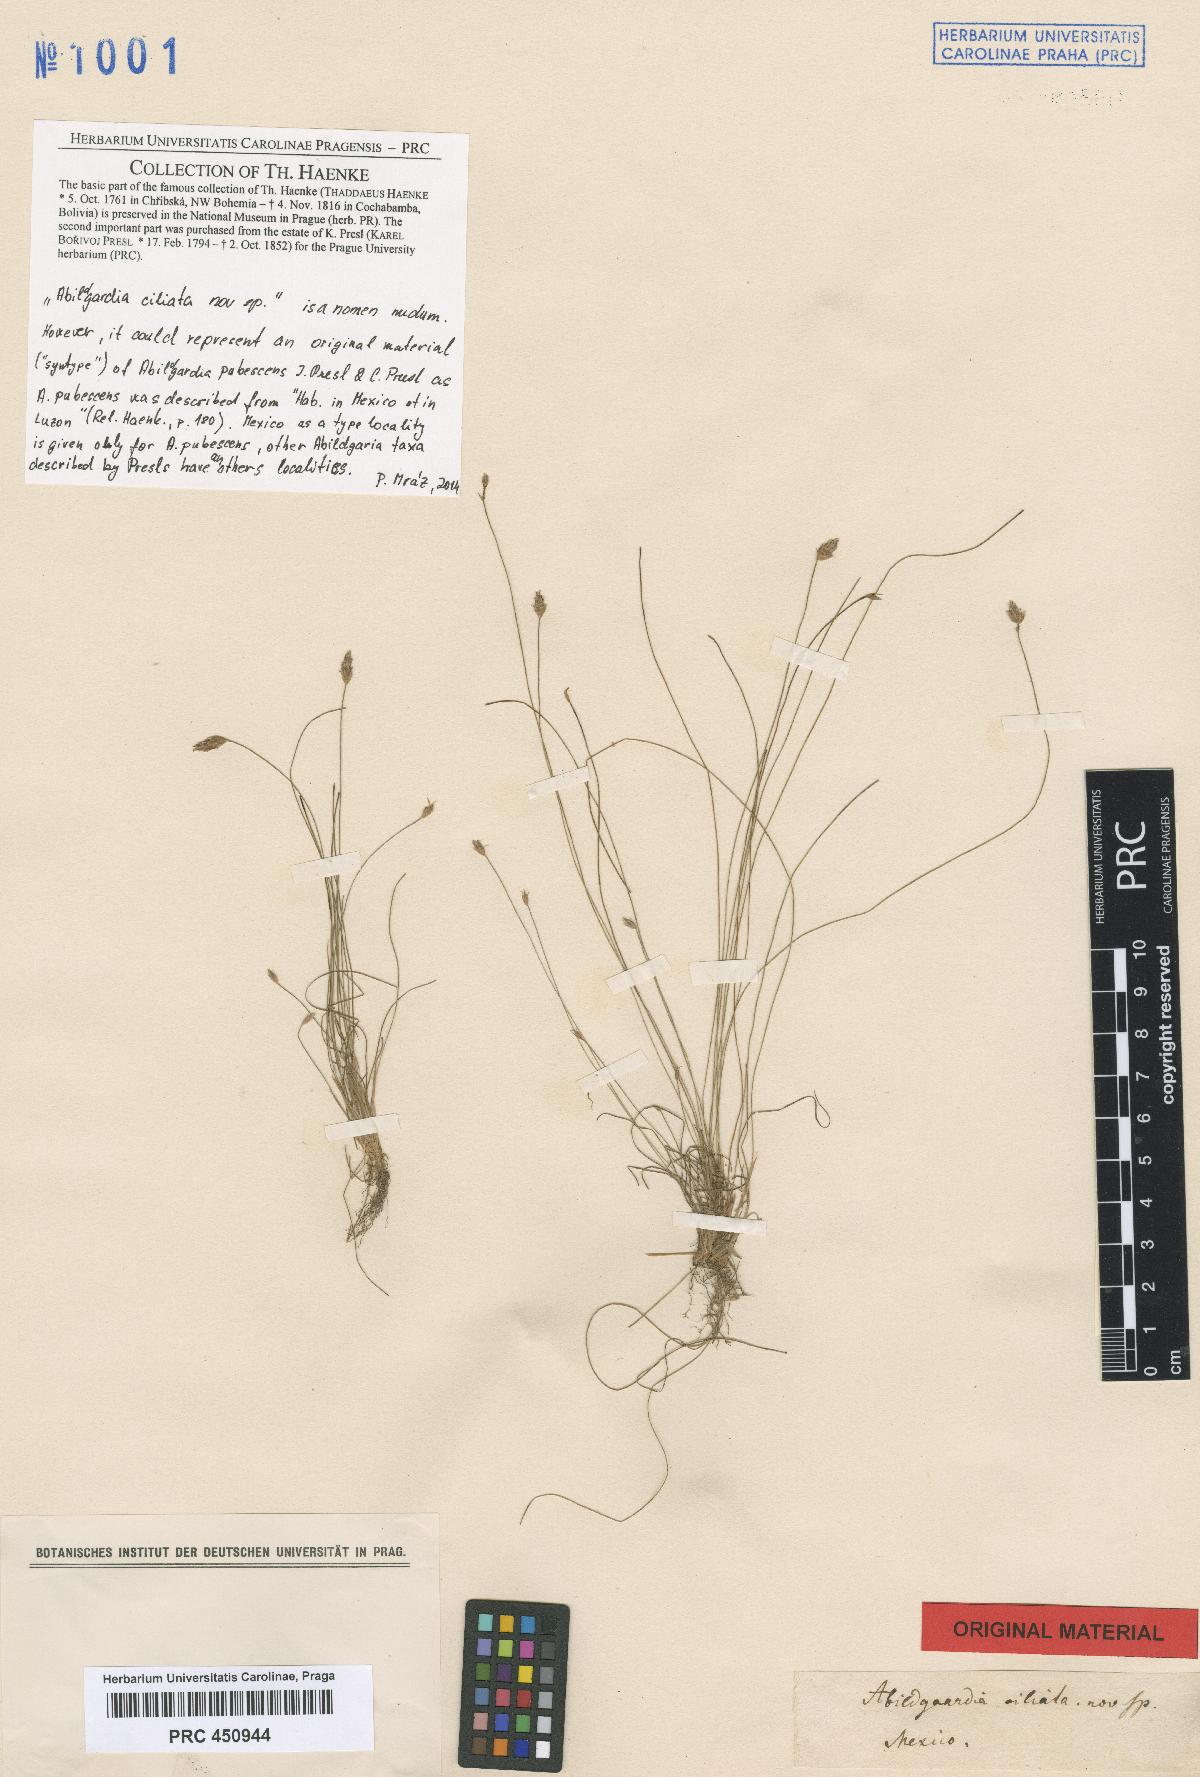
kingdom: Plantae
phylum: Tracheophyta
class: Liliopsida
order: Poales
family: Cyperaceae
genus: Bulbostylis
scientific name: Bulbostylis pubescens
